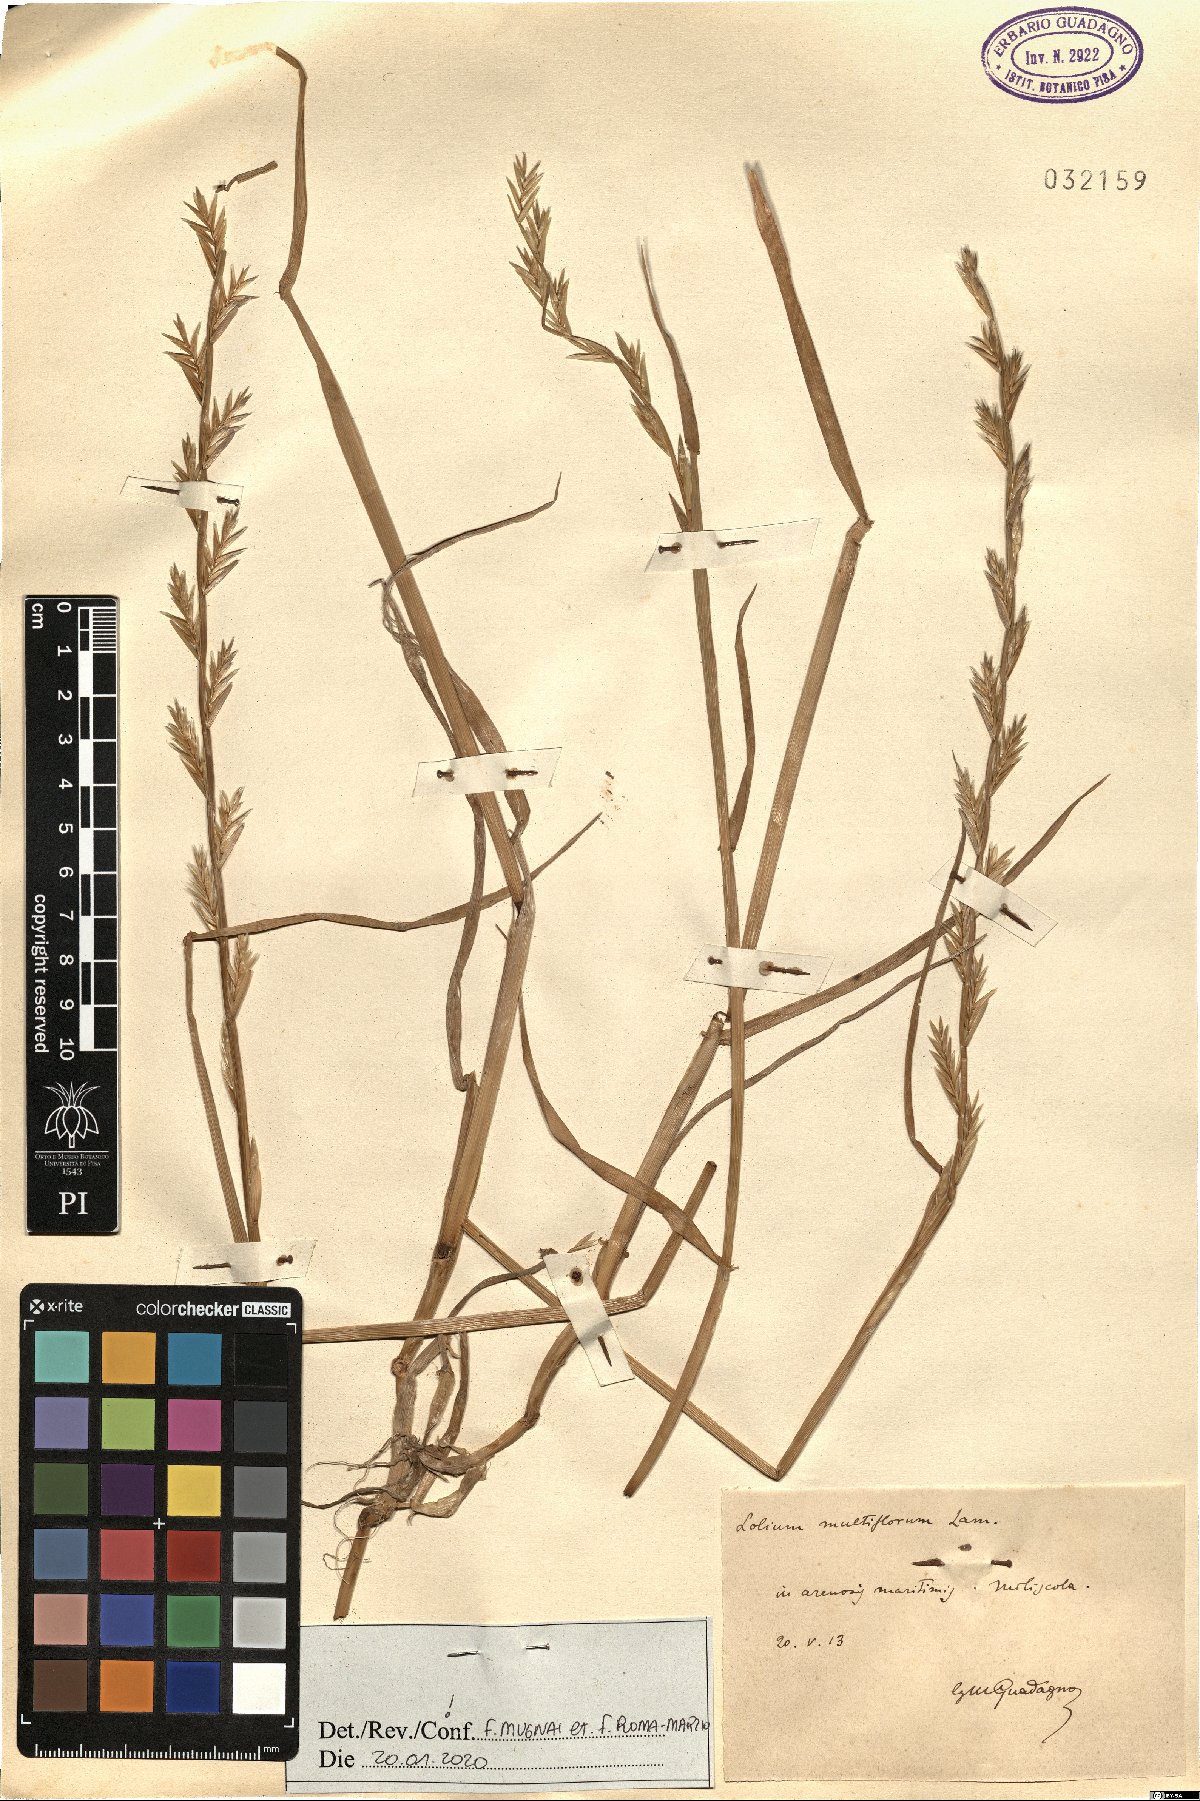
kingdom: Plantae
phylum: Tracheophyta
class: Liliopsida
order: Poales
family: Poaceae
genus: Lolium
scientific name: Lolium multiflorum
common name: Annual ryegrass
